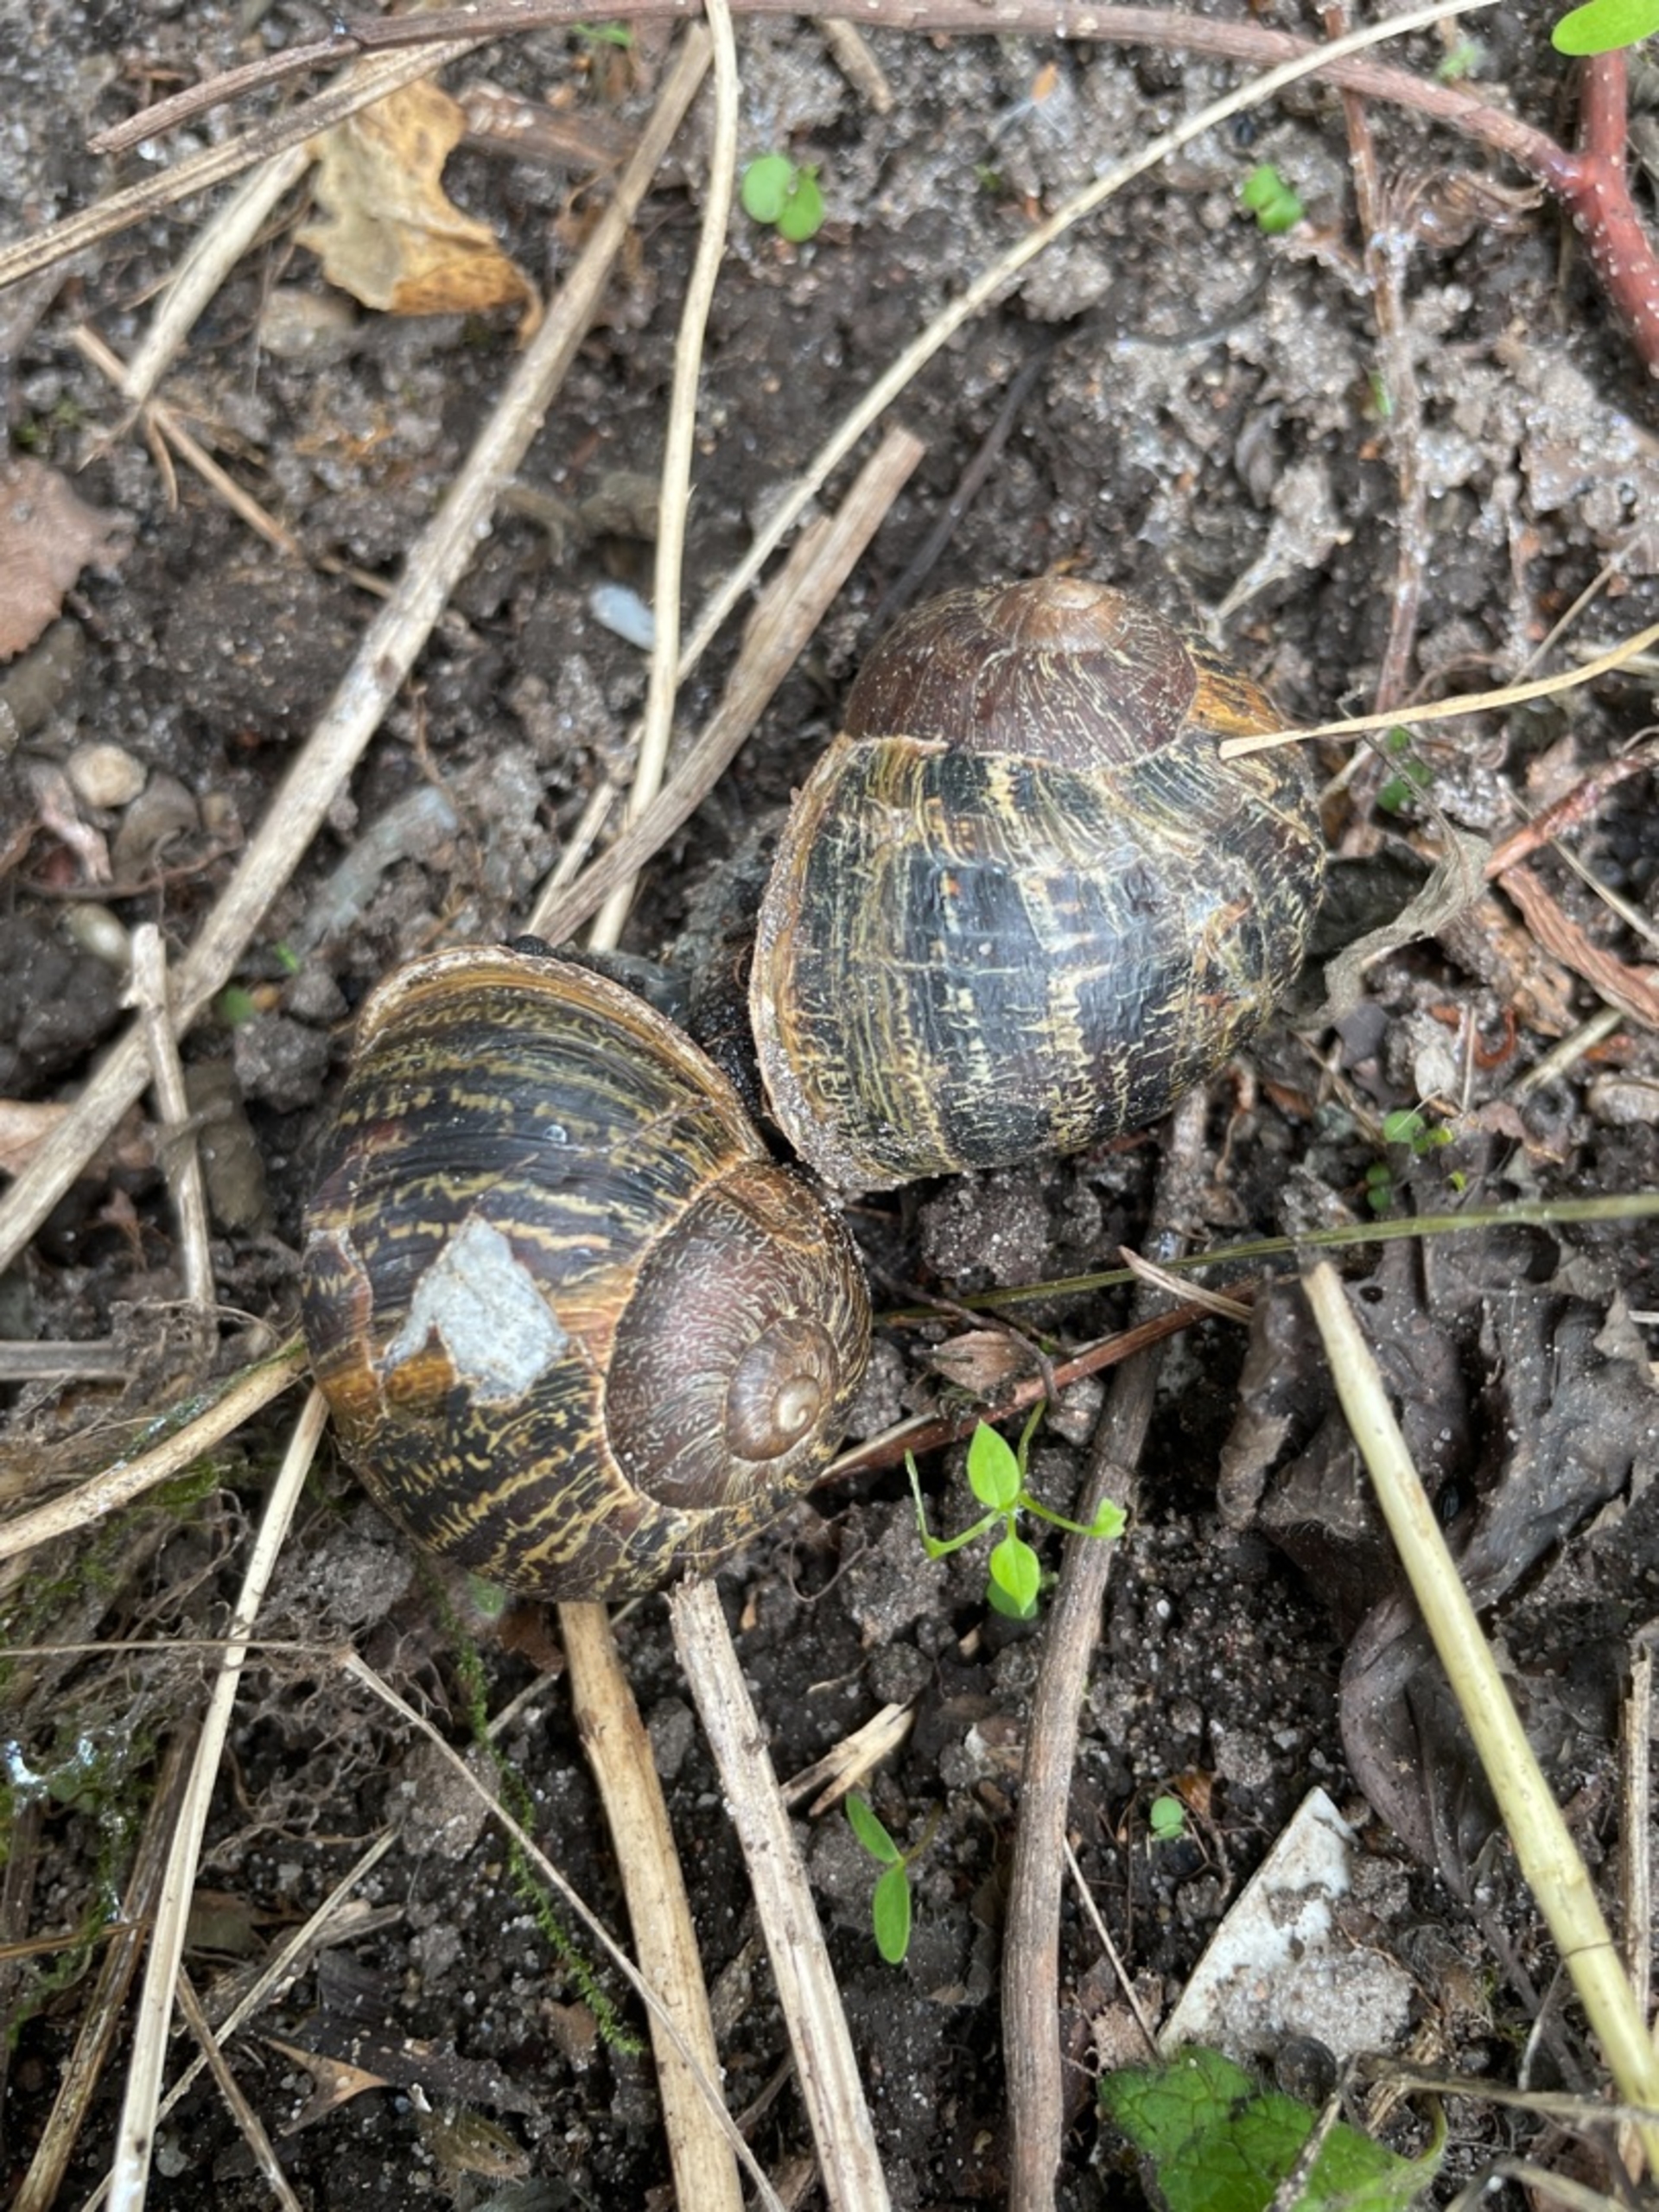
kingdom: Animalia
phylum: Mollusca
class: Gastropoda
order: Stylommatophora
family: Helicidae
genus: Cornu
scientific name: Cornu aspersum
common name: Plettet voldsnegl
